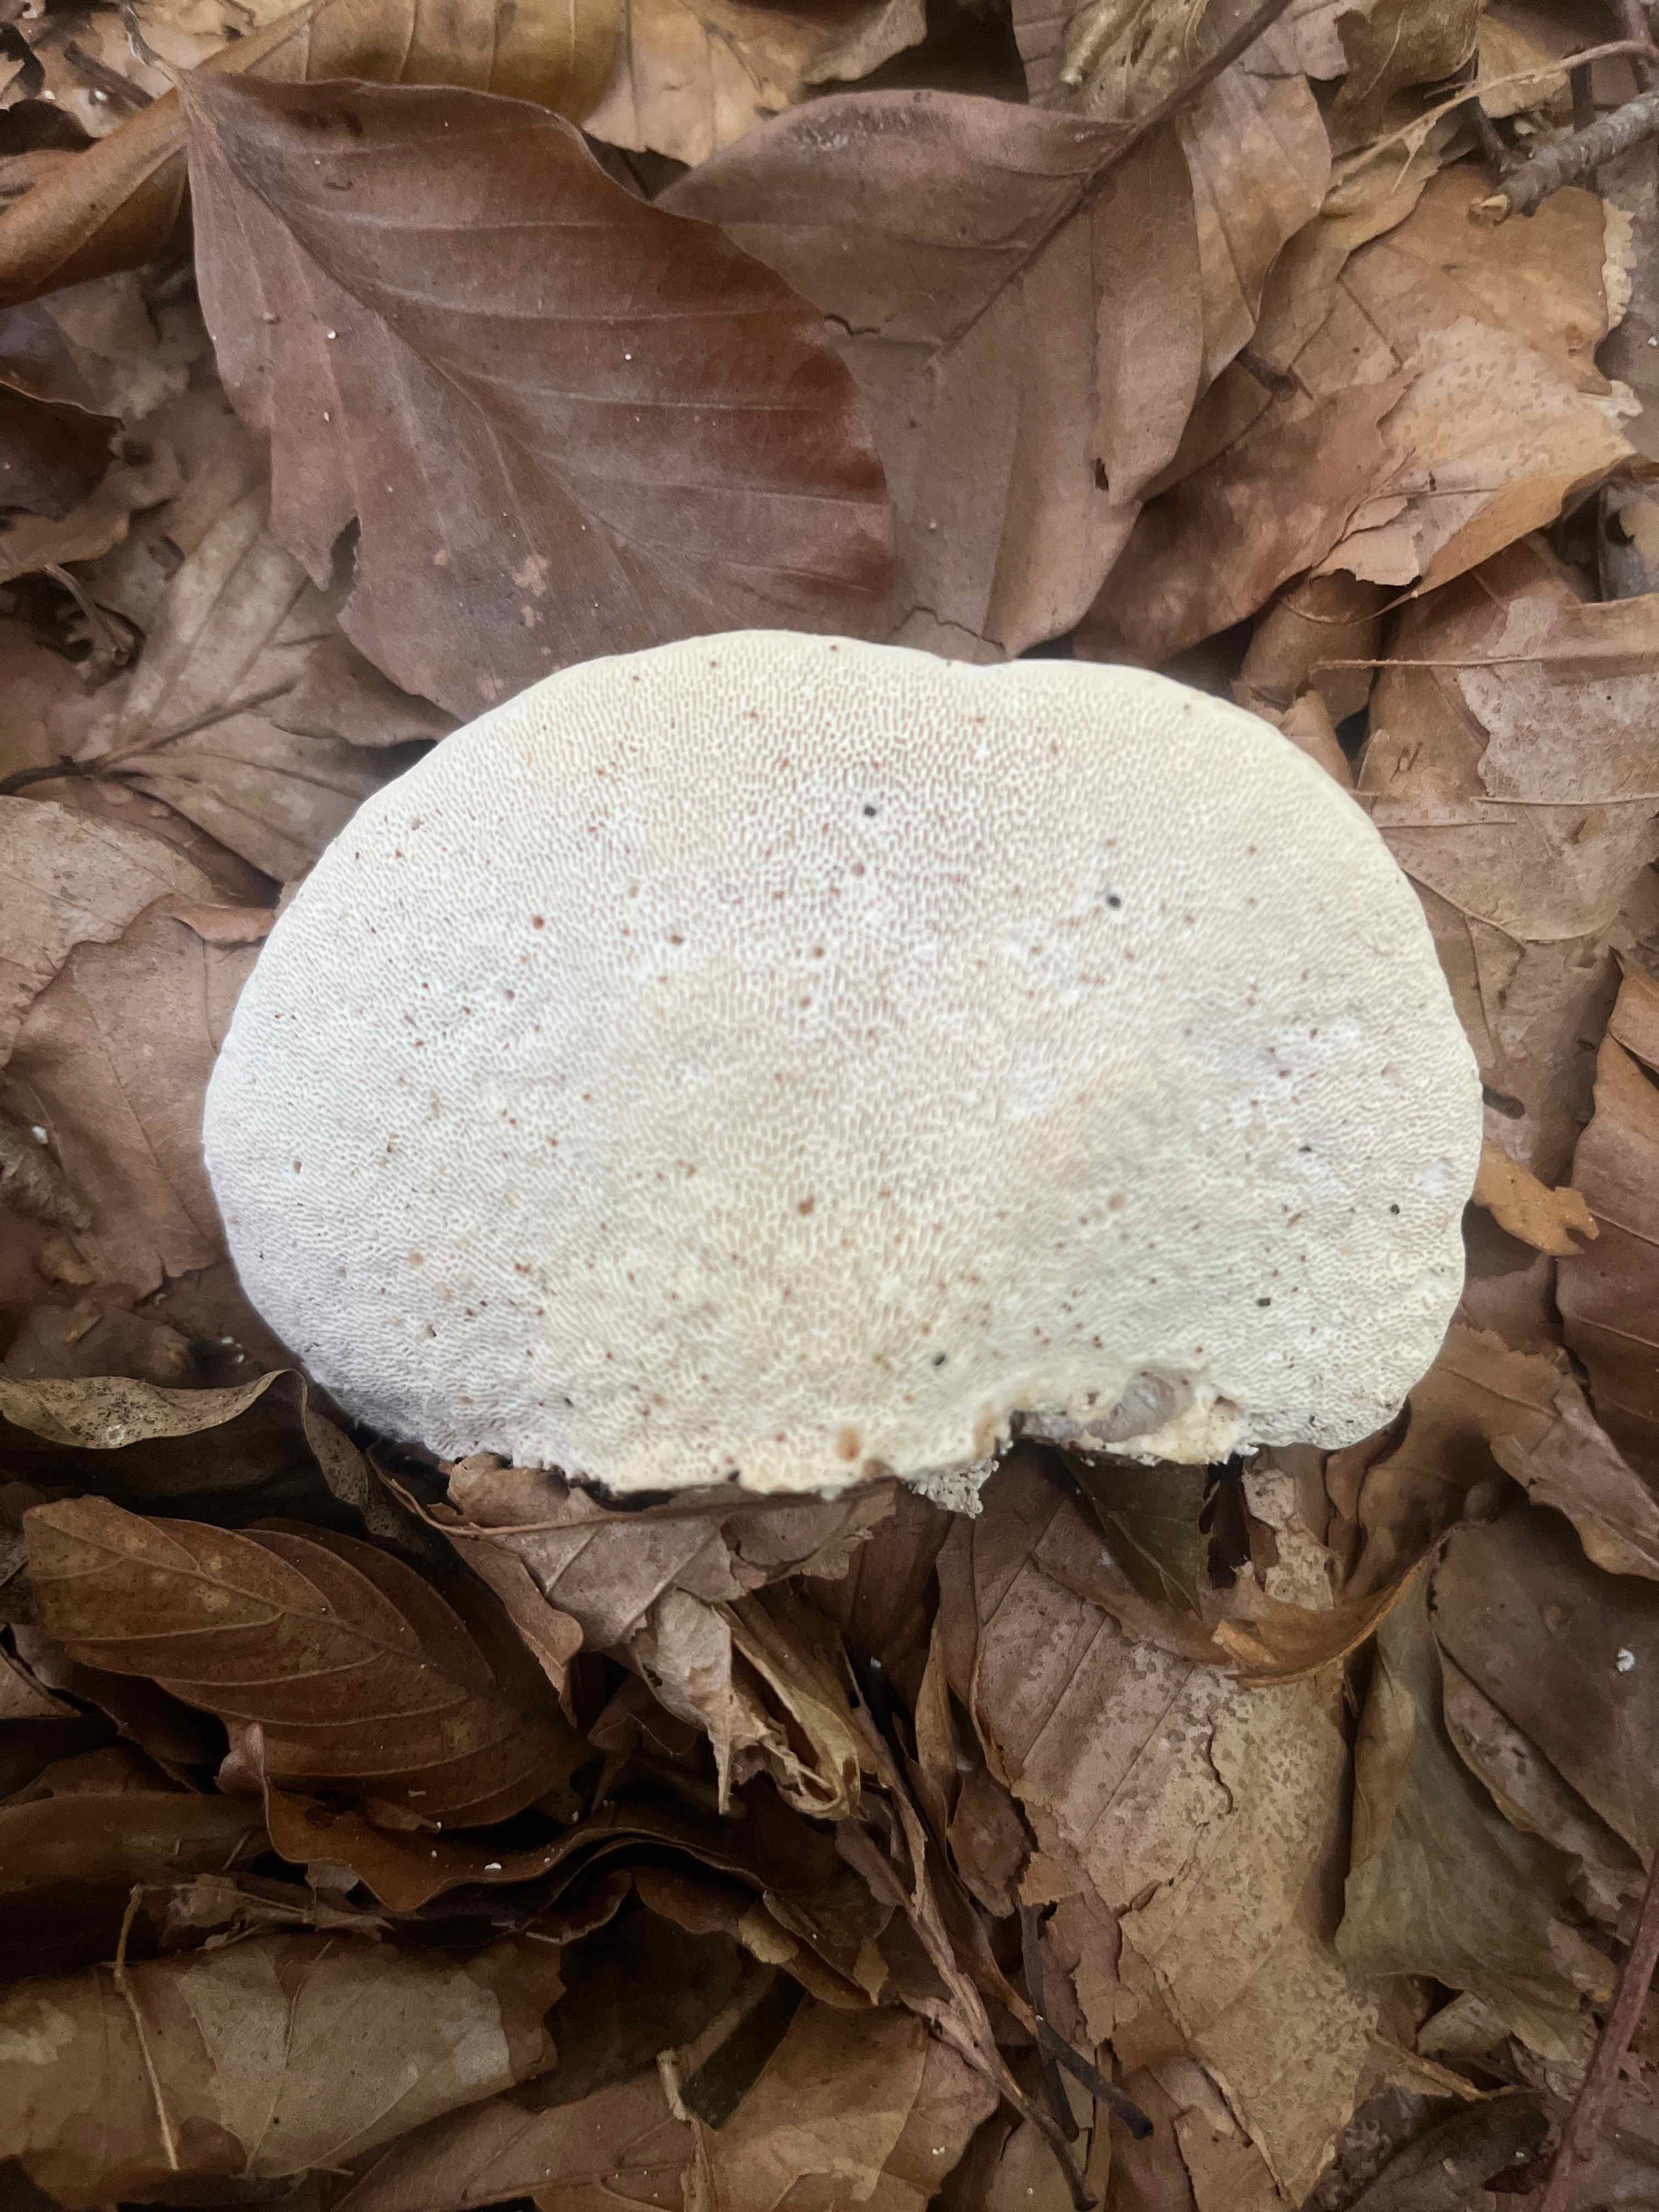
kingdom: Fungi
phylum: Basidiomycota
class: Agaricomycetes
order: Polyporales
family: Polyporaceae
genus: Trametes
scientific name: Trametes gibbosa
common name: puklet læderporesvamp
